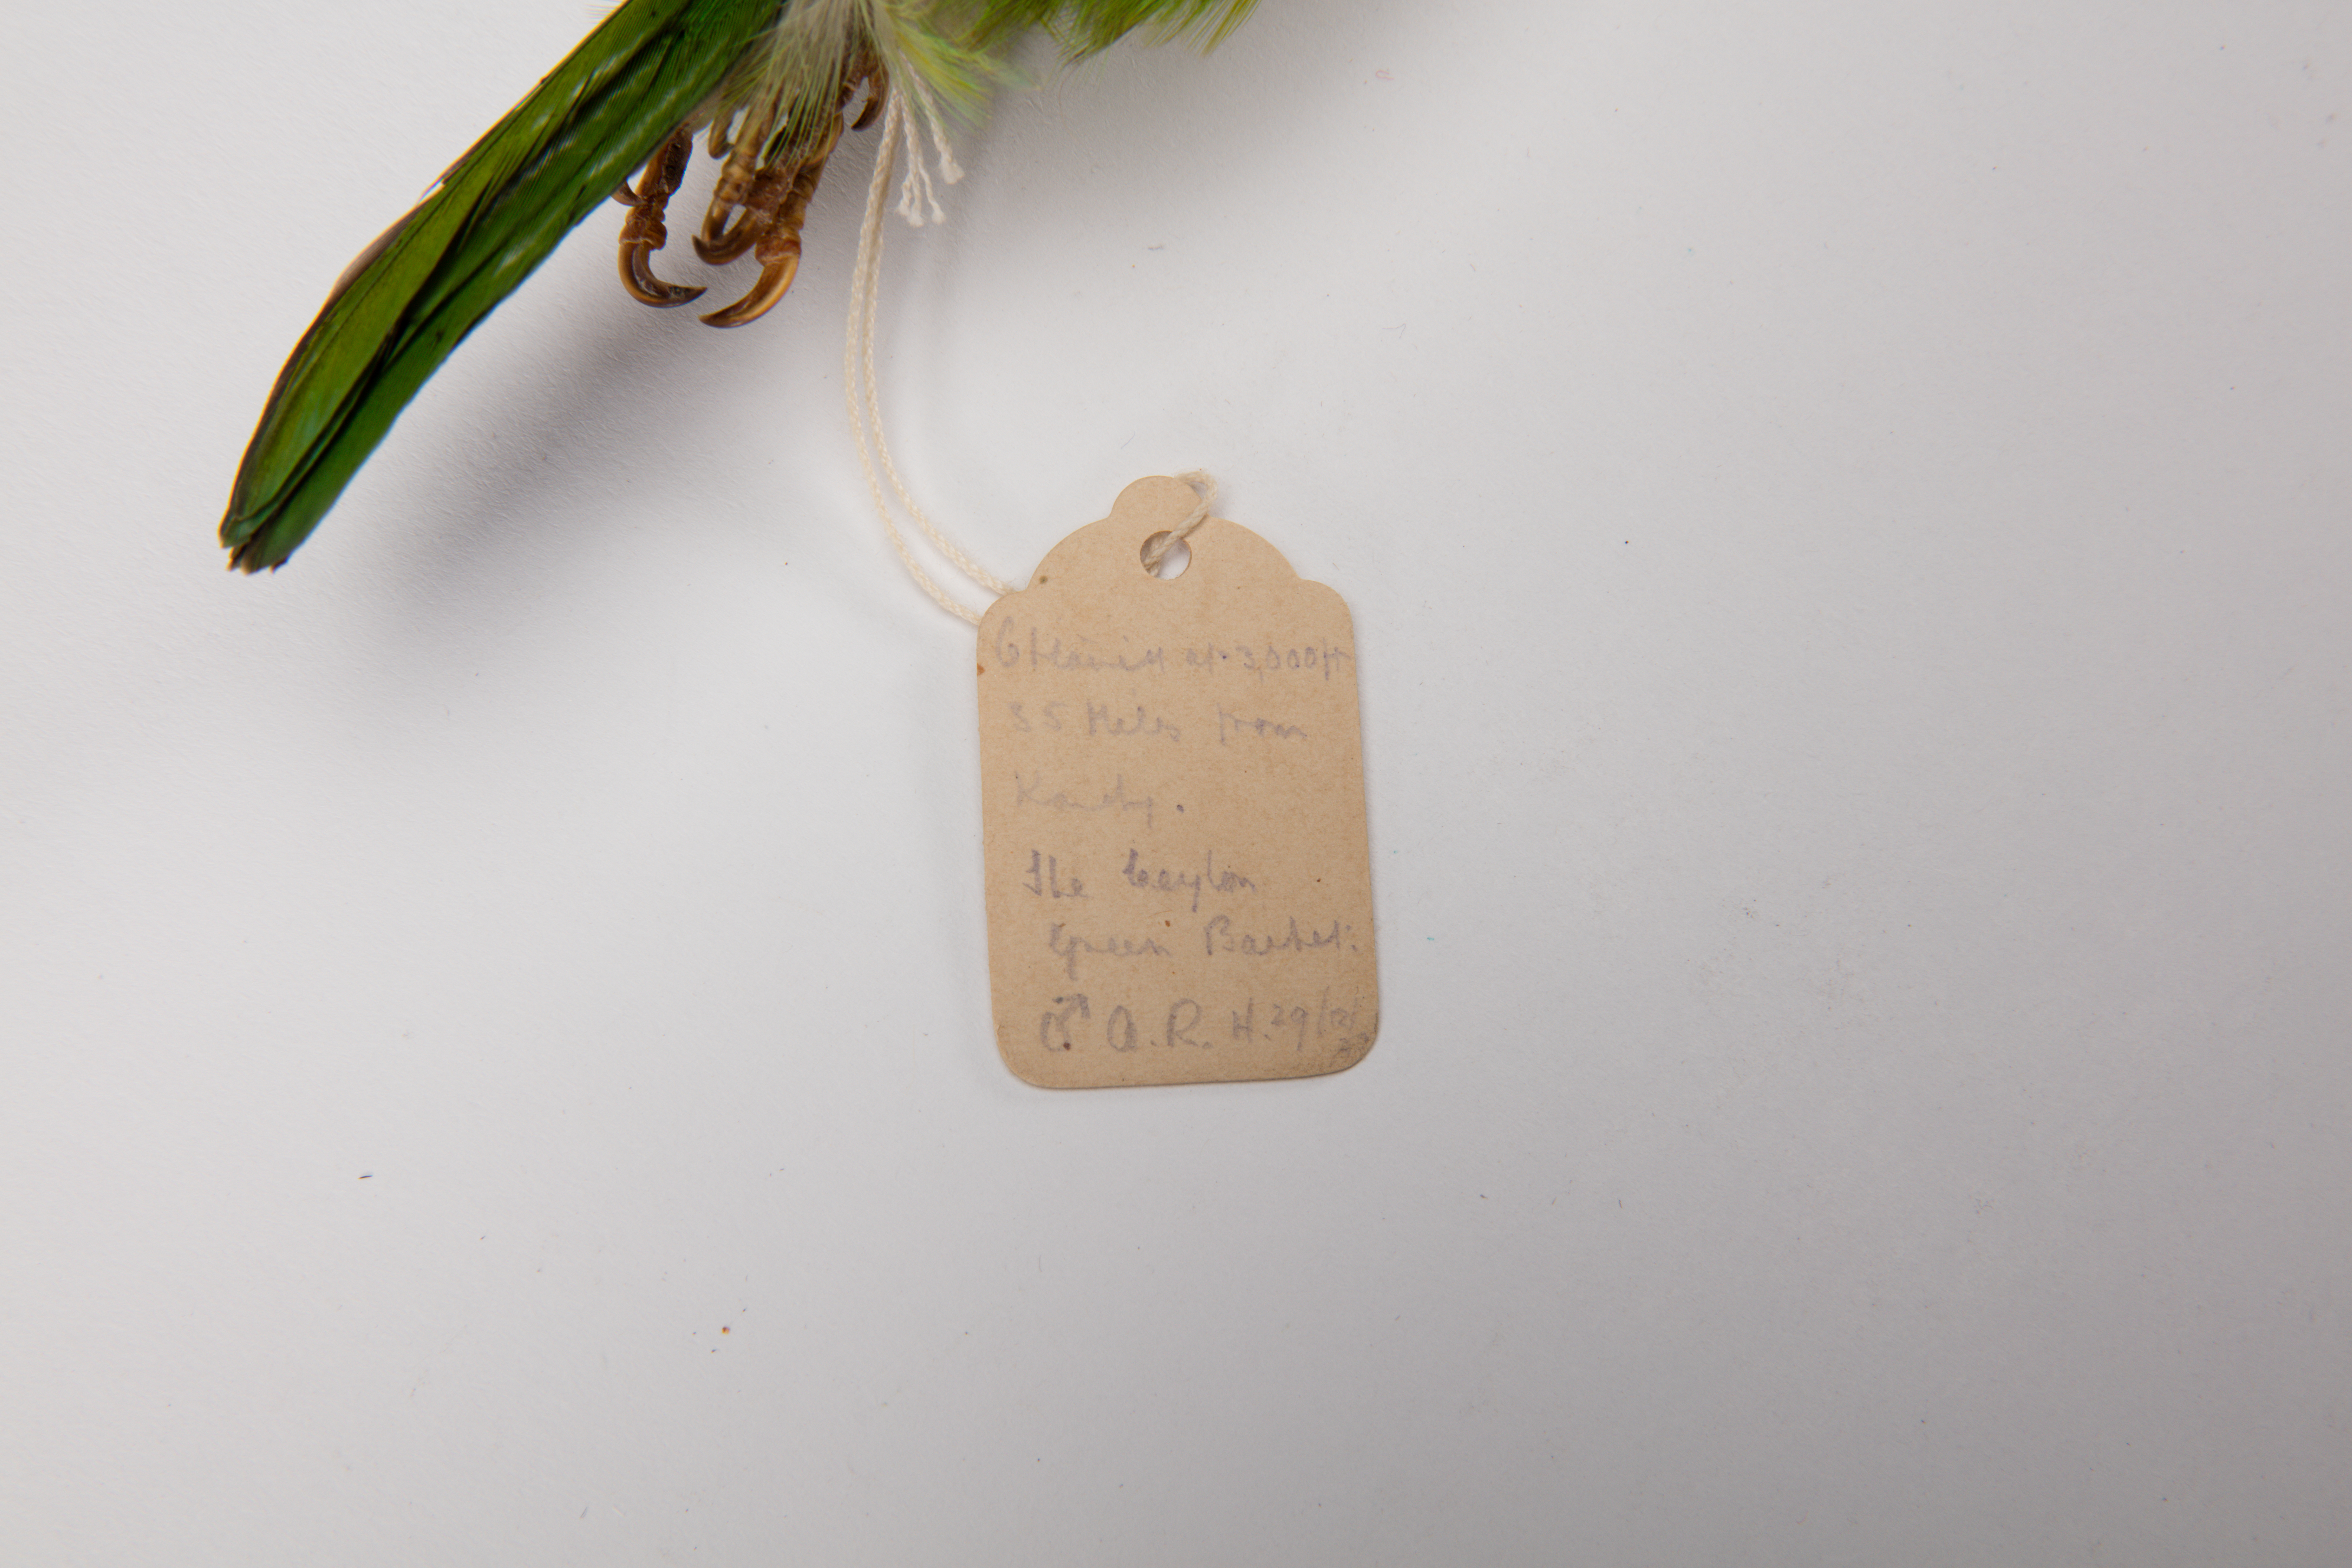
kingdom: Animalia
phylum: Chordata
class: Aves
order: Piciformes
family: Megalaimidae
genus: Psilopogon
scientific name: Psilopogon zeylanicus
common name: Brown-headed barbet
